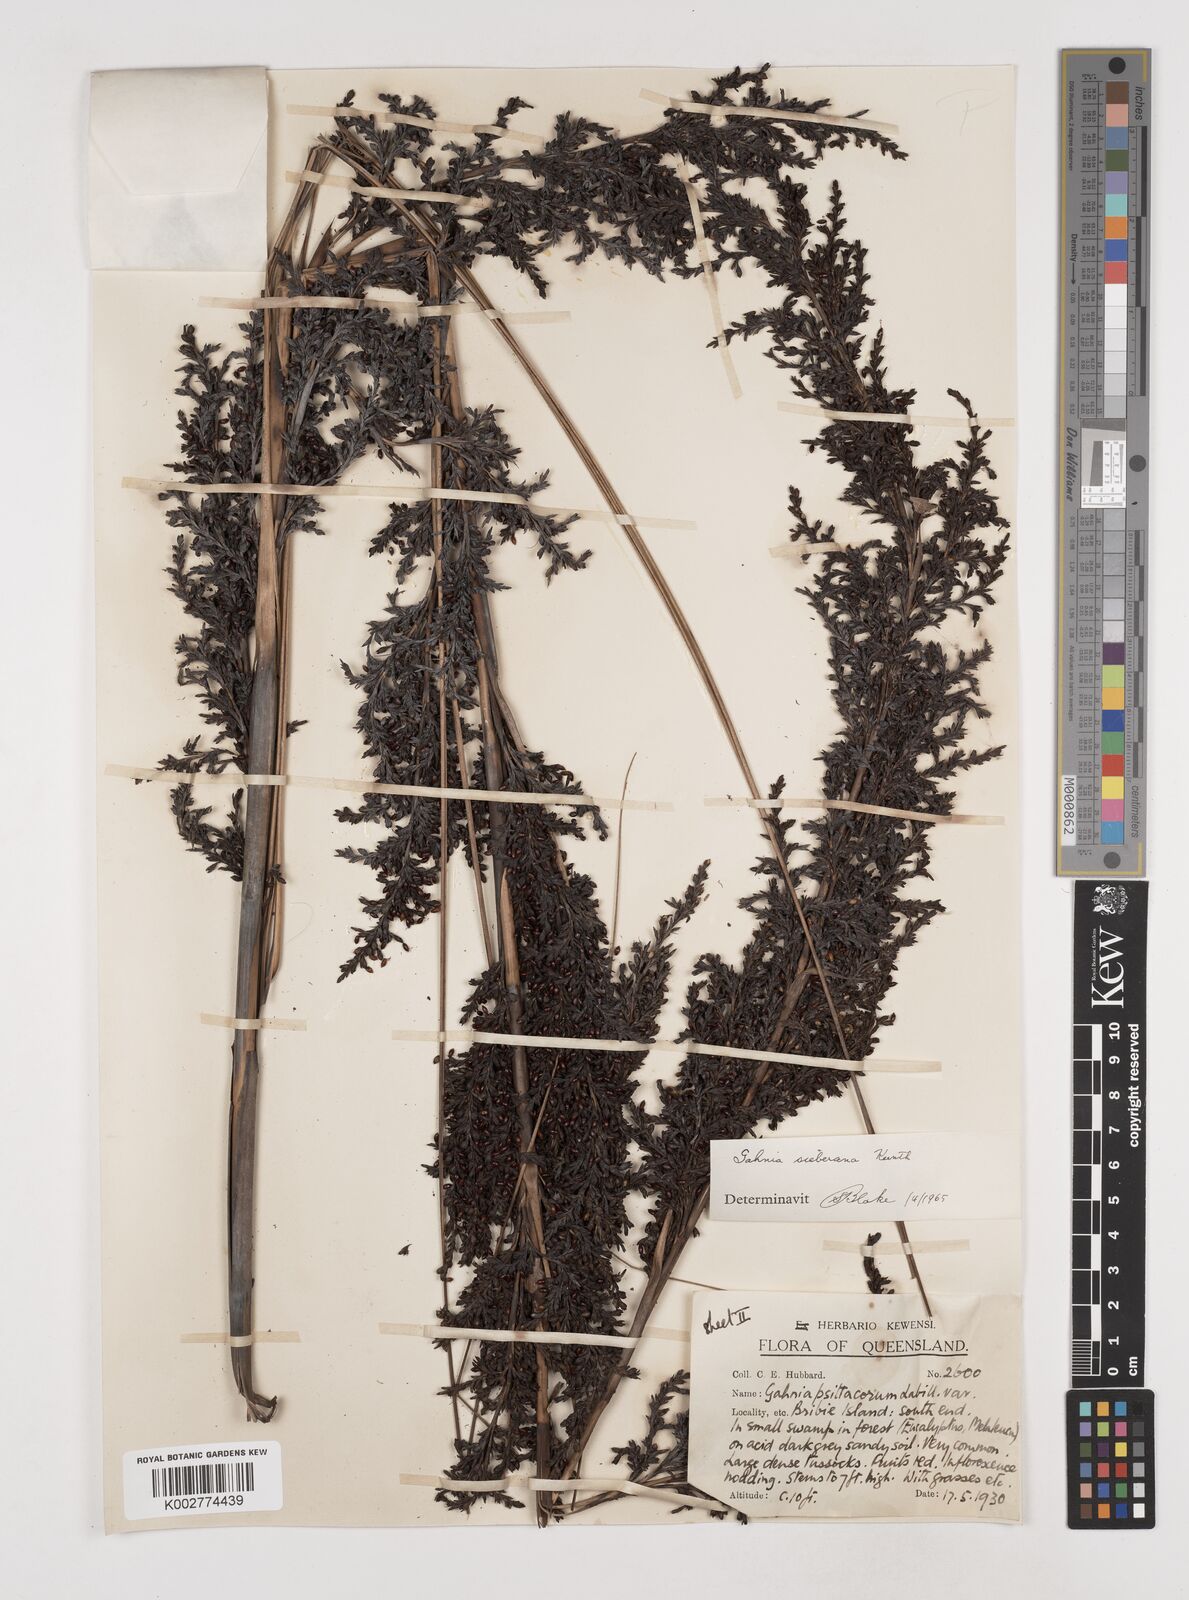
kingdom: Plantae
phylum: Tracheophyta
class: Liliopsida
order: Poales
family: Cyperaceae
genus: Gahnia
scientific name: Gahnia sieberiana
